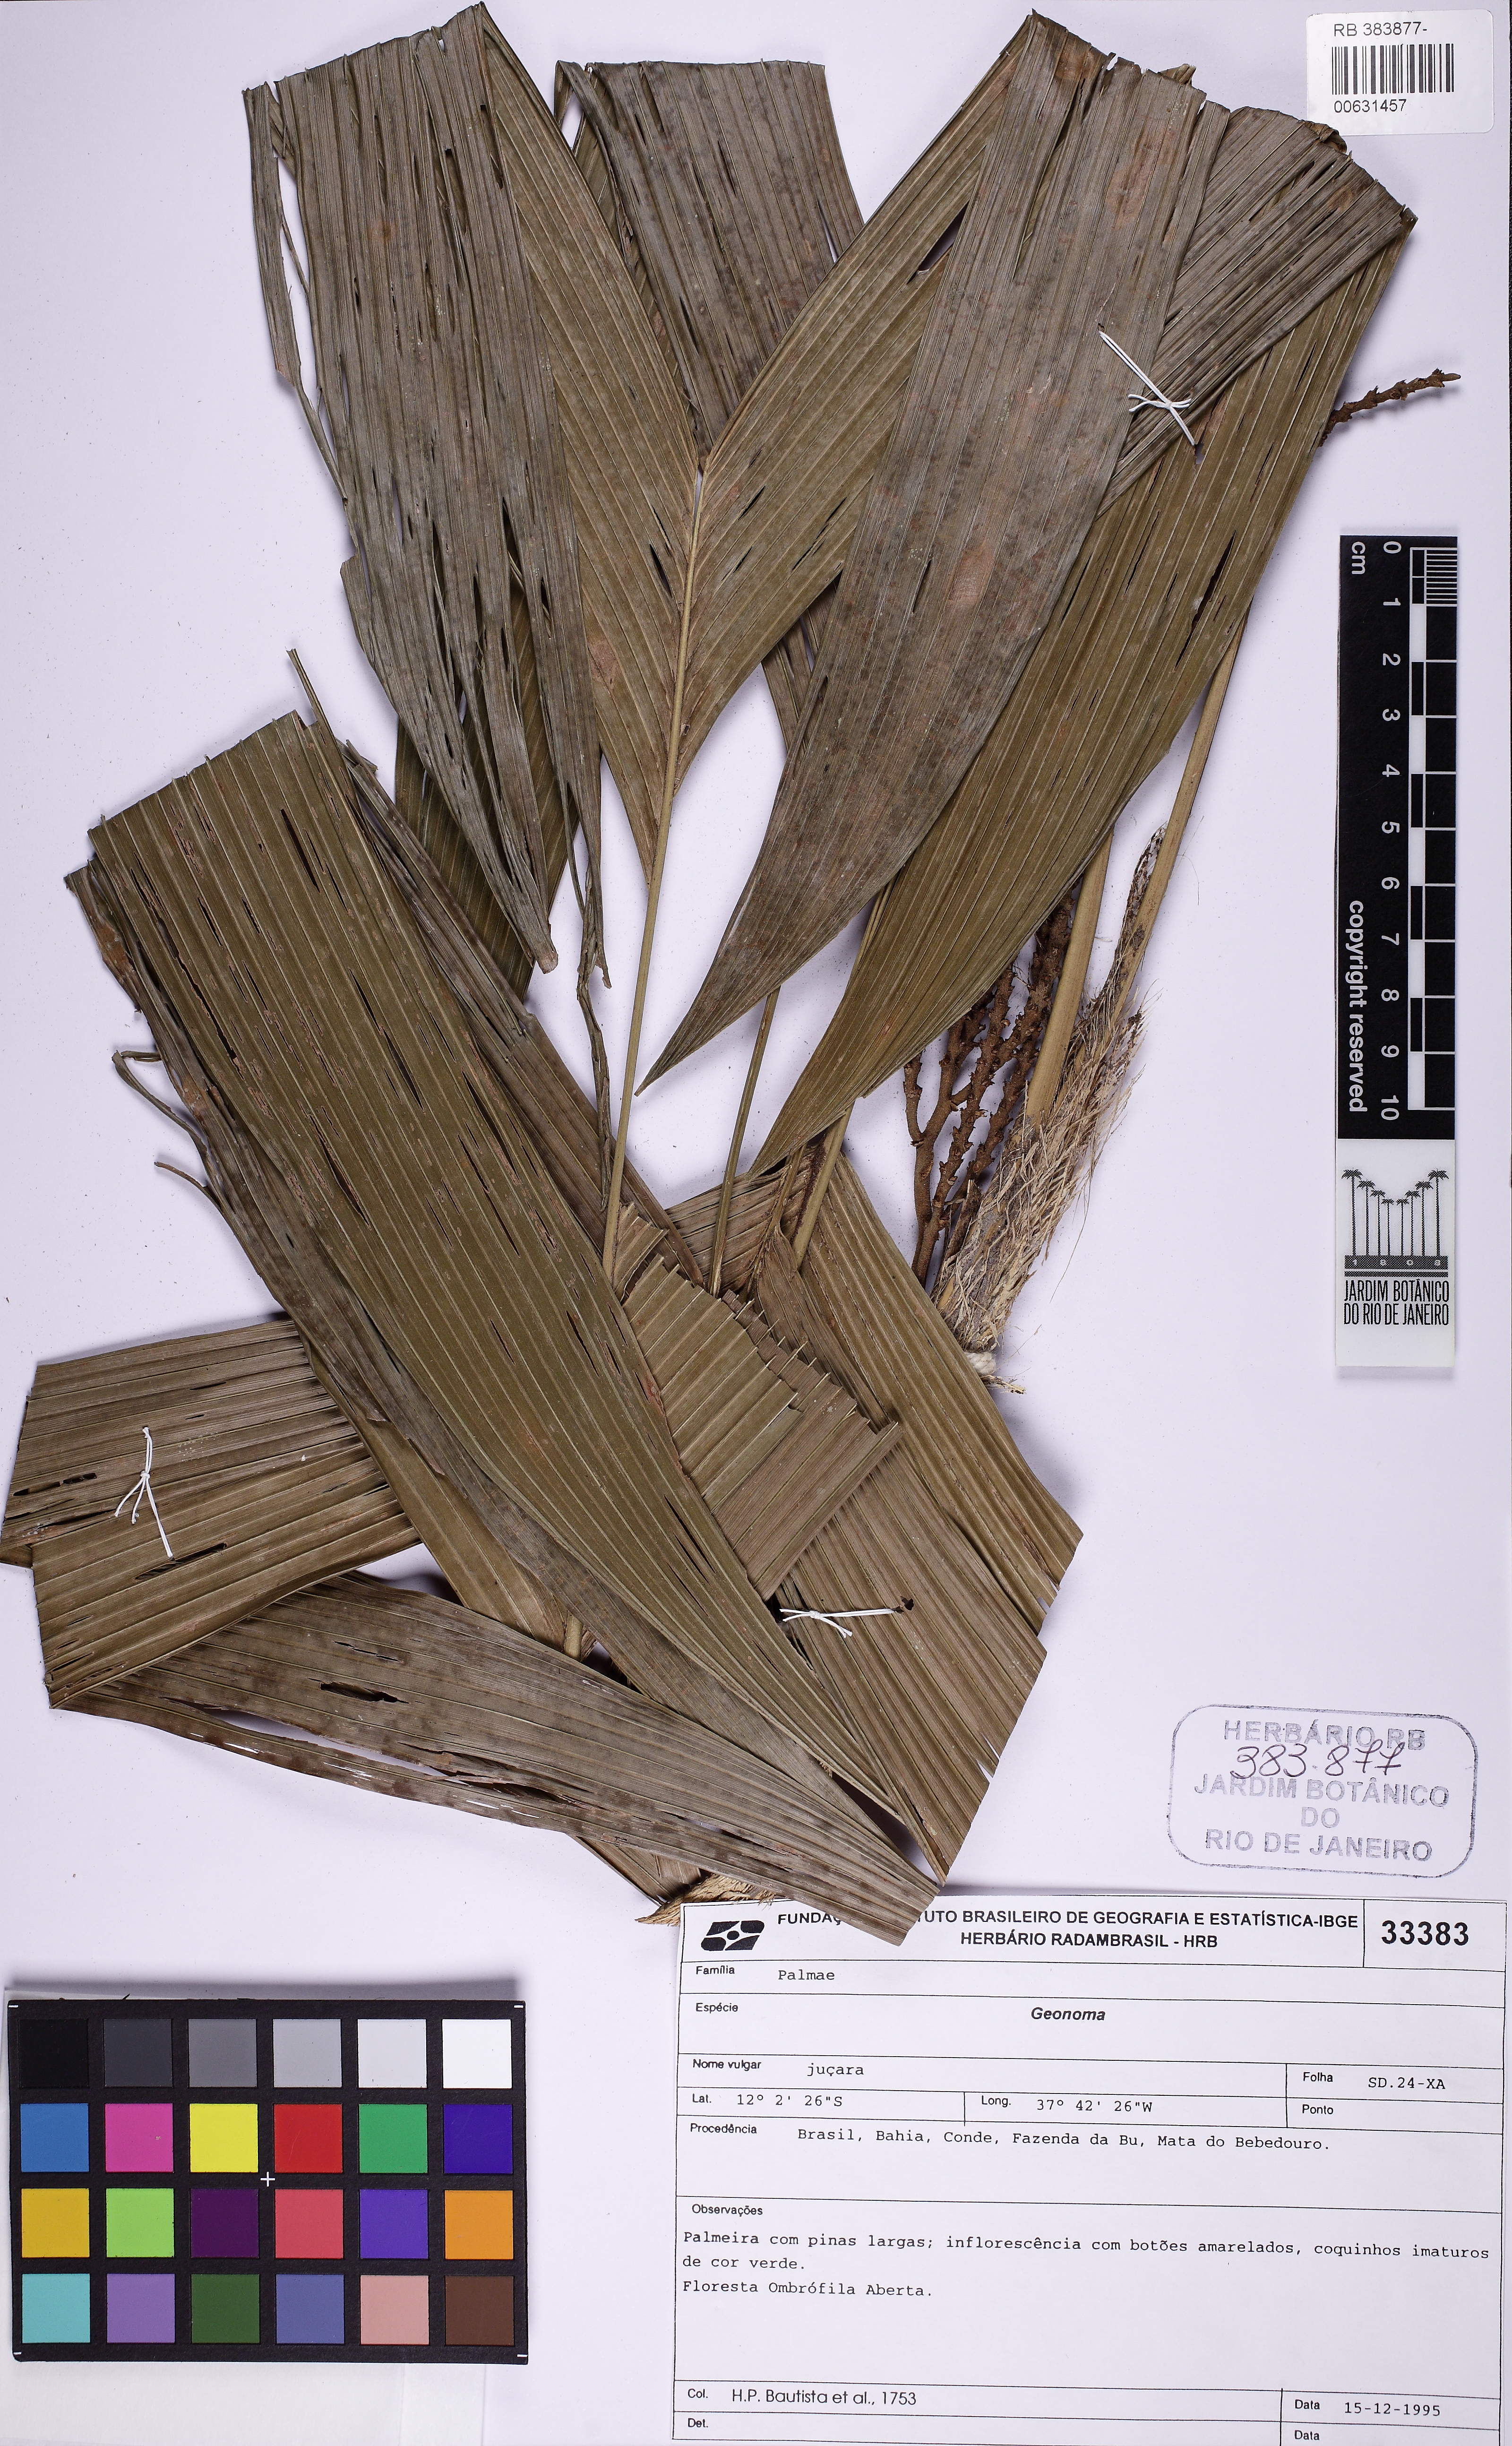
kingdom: Plantae
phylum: Tracheophyta
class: Liliopsida
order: Arecales
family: Arecaceae
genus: Geonoma
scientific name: Geonoma
